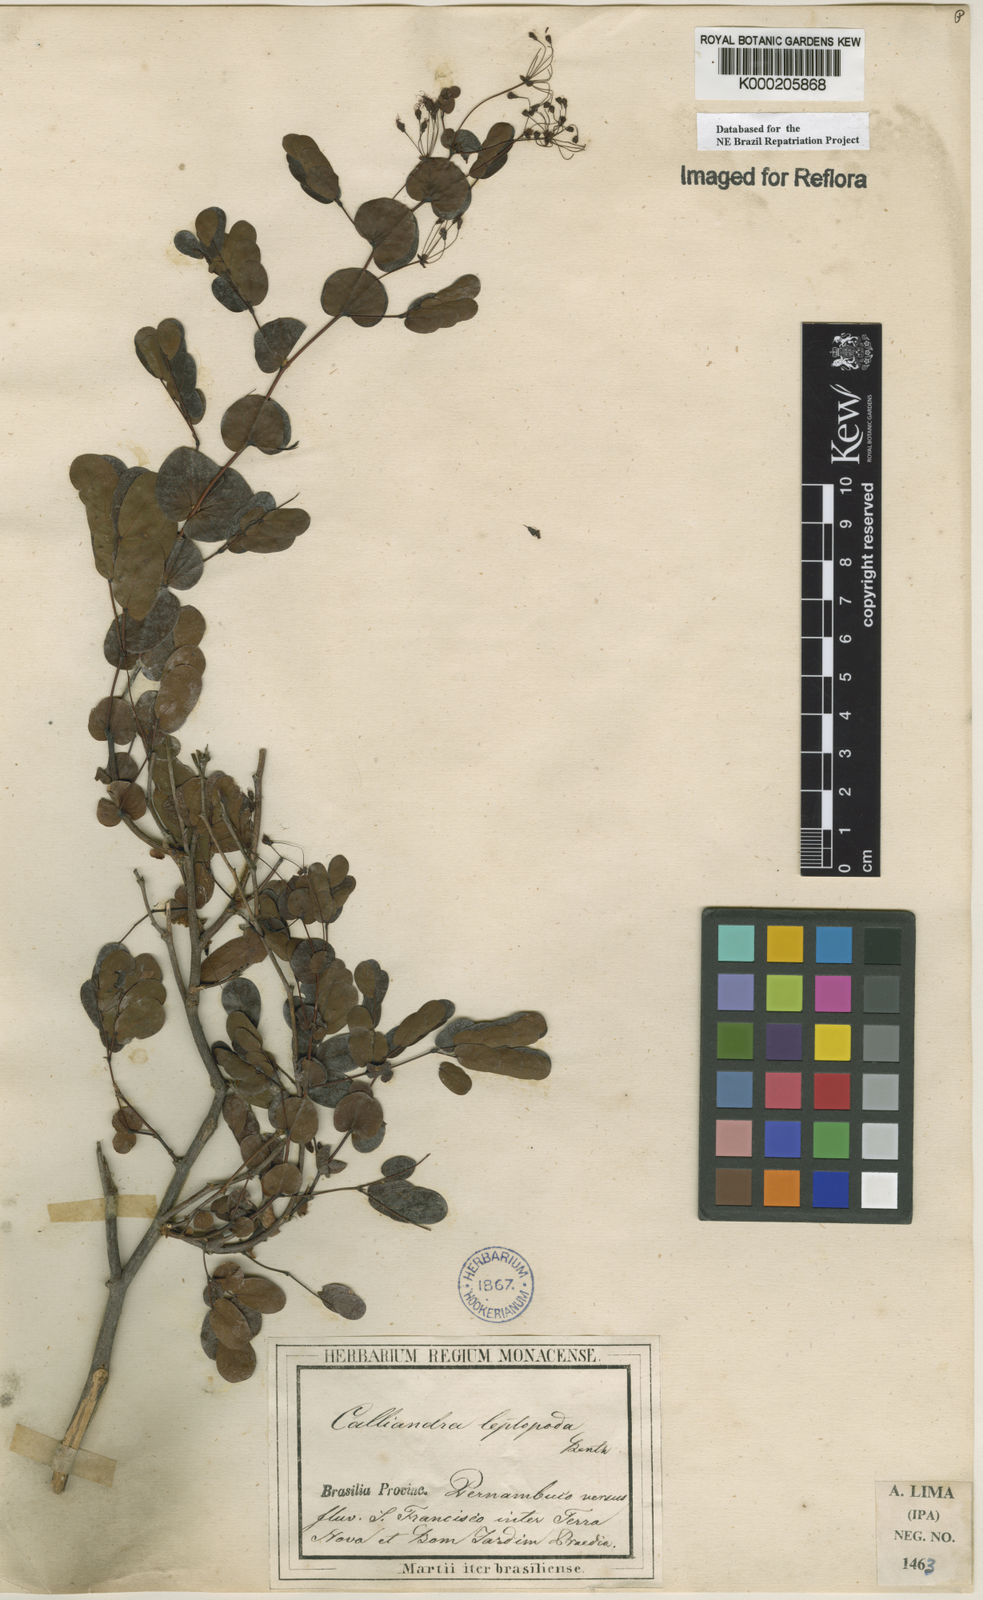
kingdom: Plantae
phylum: Tracheophyta
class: Magnoliopsida
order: Fabales
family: Fabaceae
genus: Calliandra
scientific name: Calliandra leptopoda
